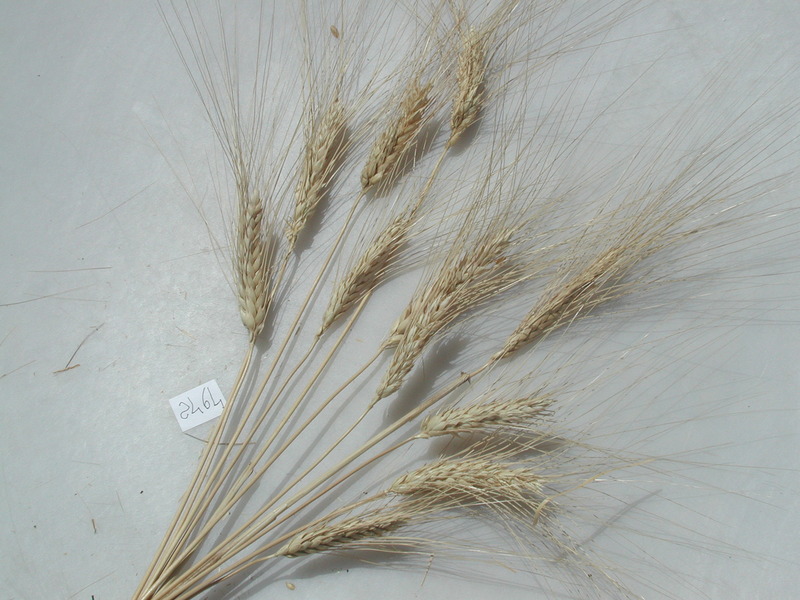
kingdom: Plantae
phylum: Tracheophyta
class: Liliopsida
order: Poales
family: Poaceae
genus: Triticum
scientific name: Triticum turgidum
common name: Wheat
